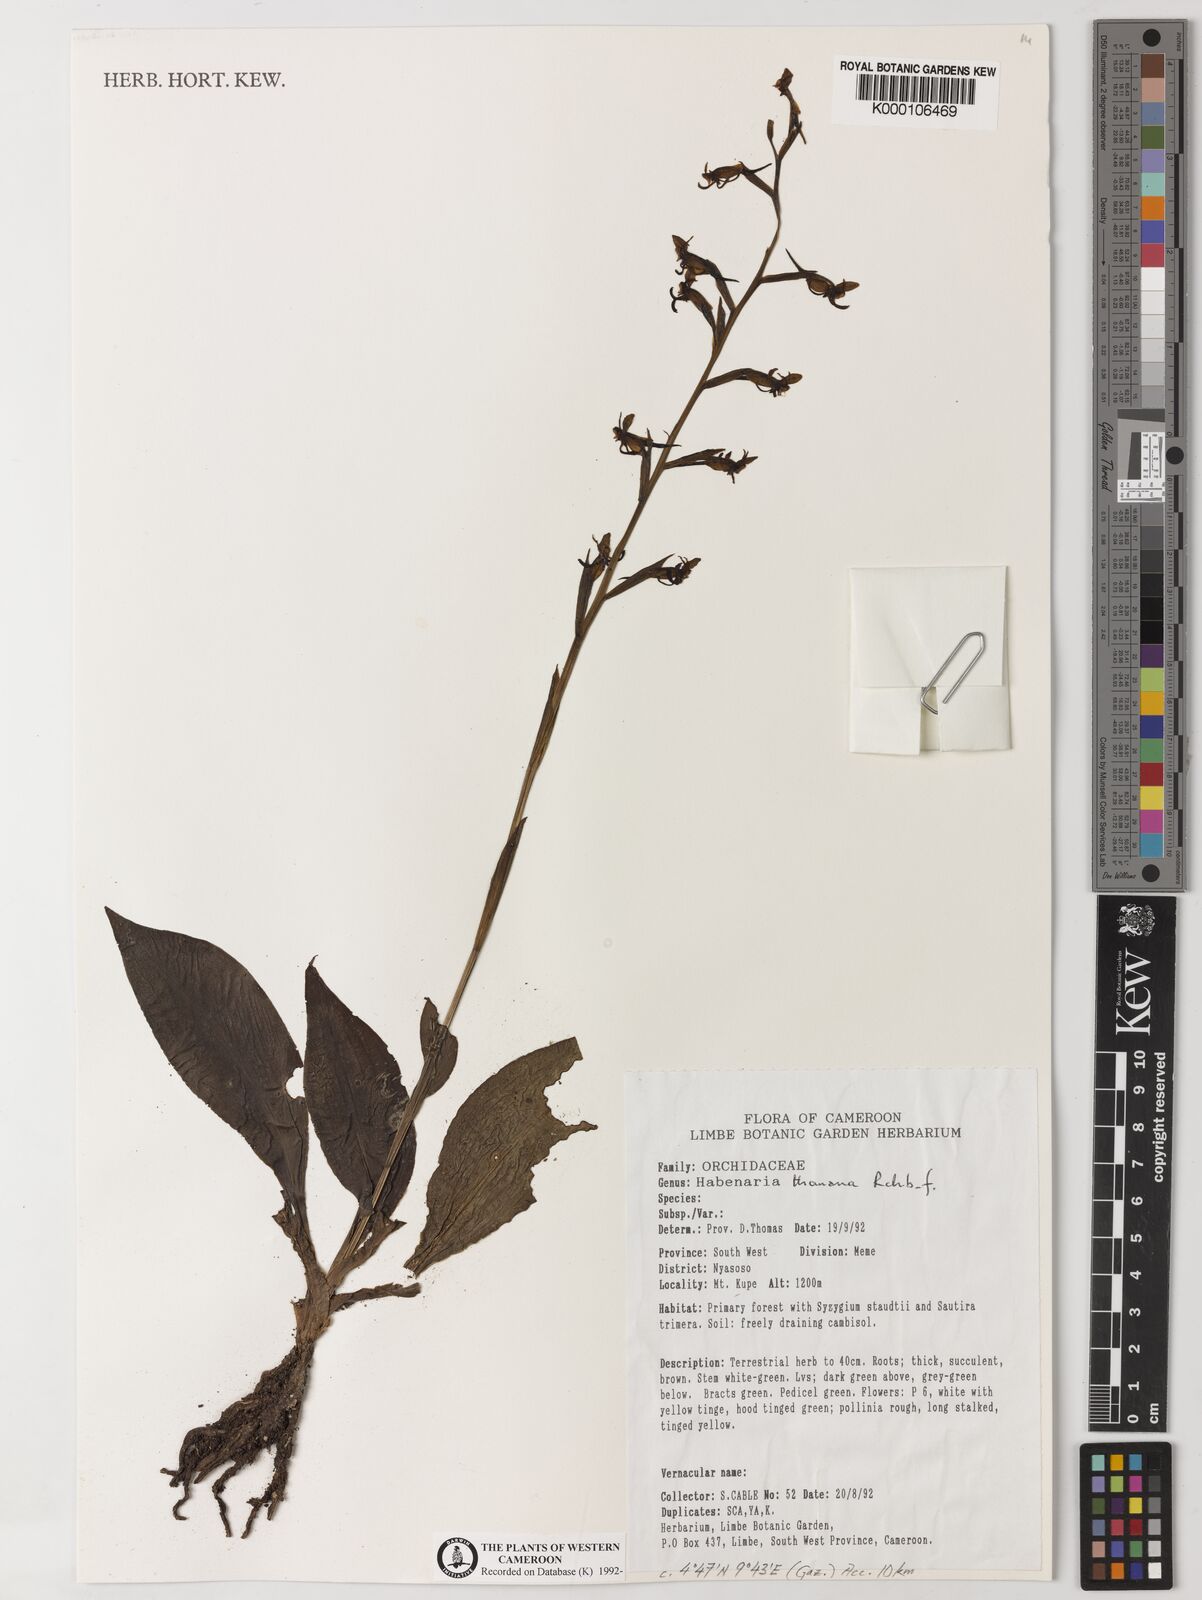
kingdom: Plantae
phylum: Tracheophyta
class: Liliopsida
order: Asparagales
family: Orchidaceae
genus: Habenaria
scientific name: Habenaria thomana
